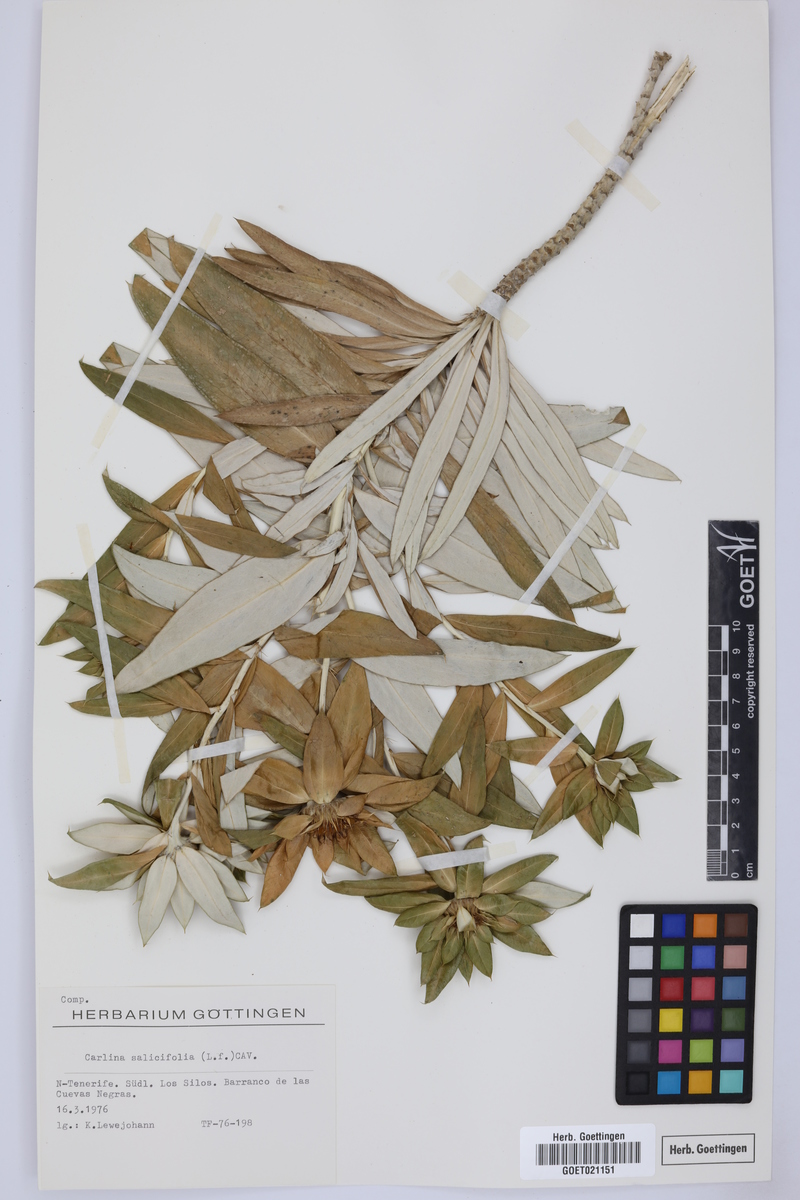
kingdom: Plantae
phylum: Tracheophyta
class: Magnoliopsida
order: Asterales
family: Asteraceae
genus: Carlina
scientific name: Carlina salicifolia
